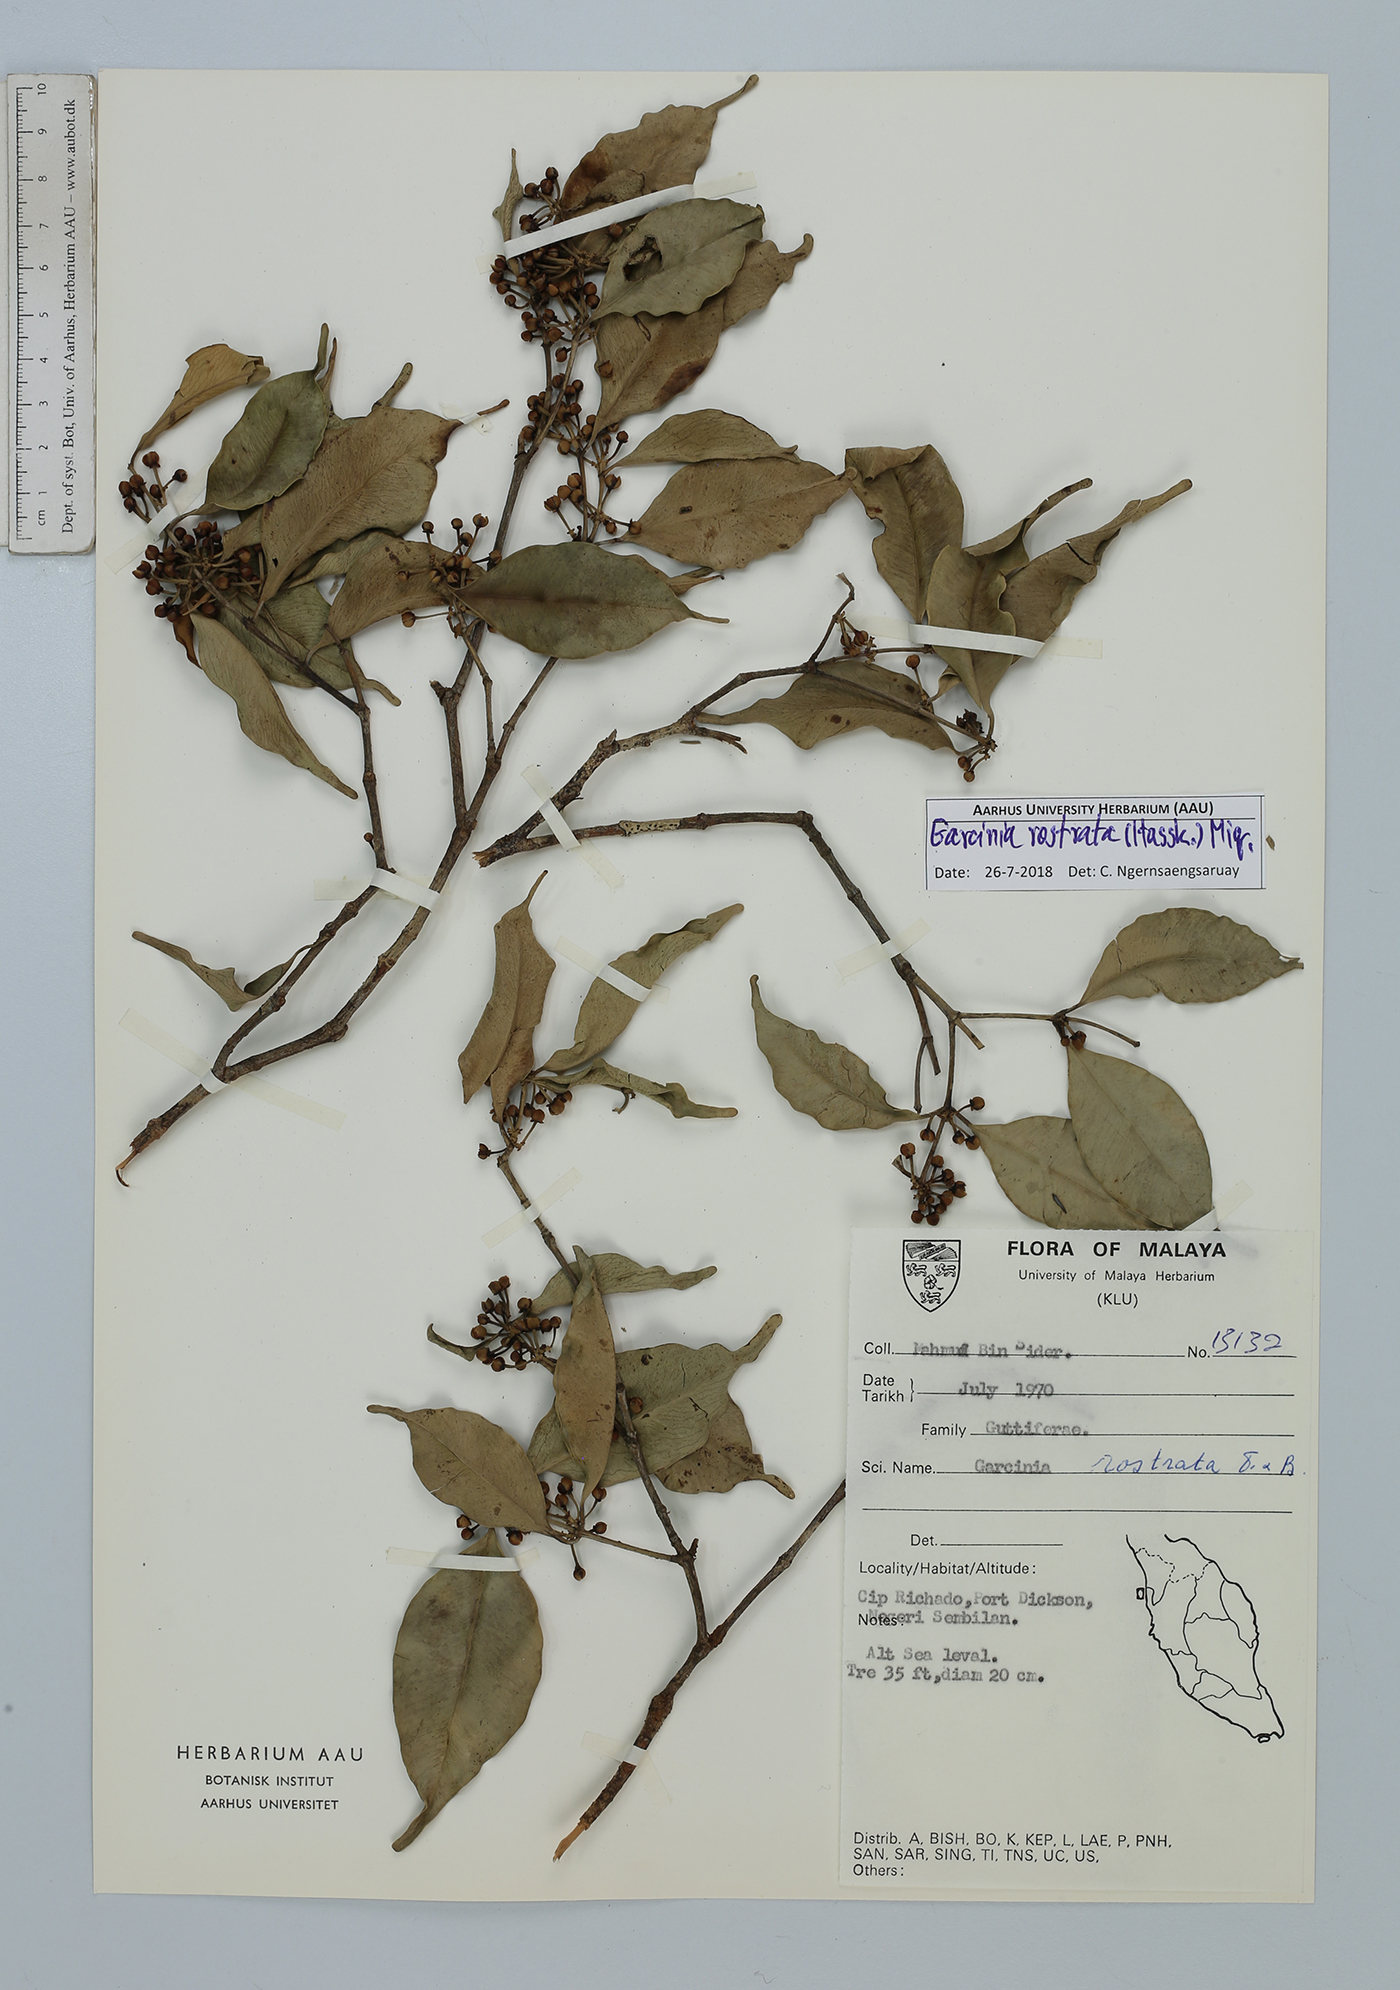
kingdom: Plantae
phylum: Tracheophyta
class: Magnoliopsida
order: Malpighiales
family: Clusiaceae
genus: Garcinia
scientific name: Garcinia rostrata
